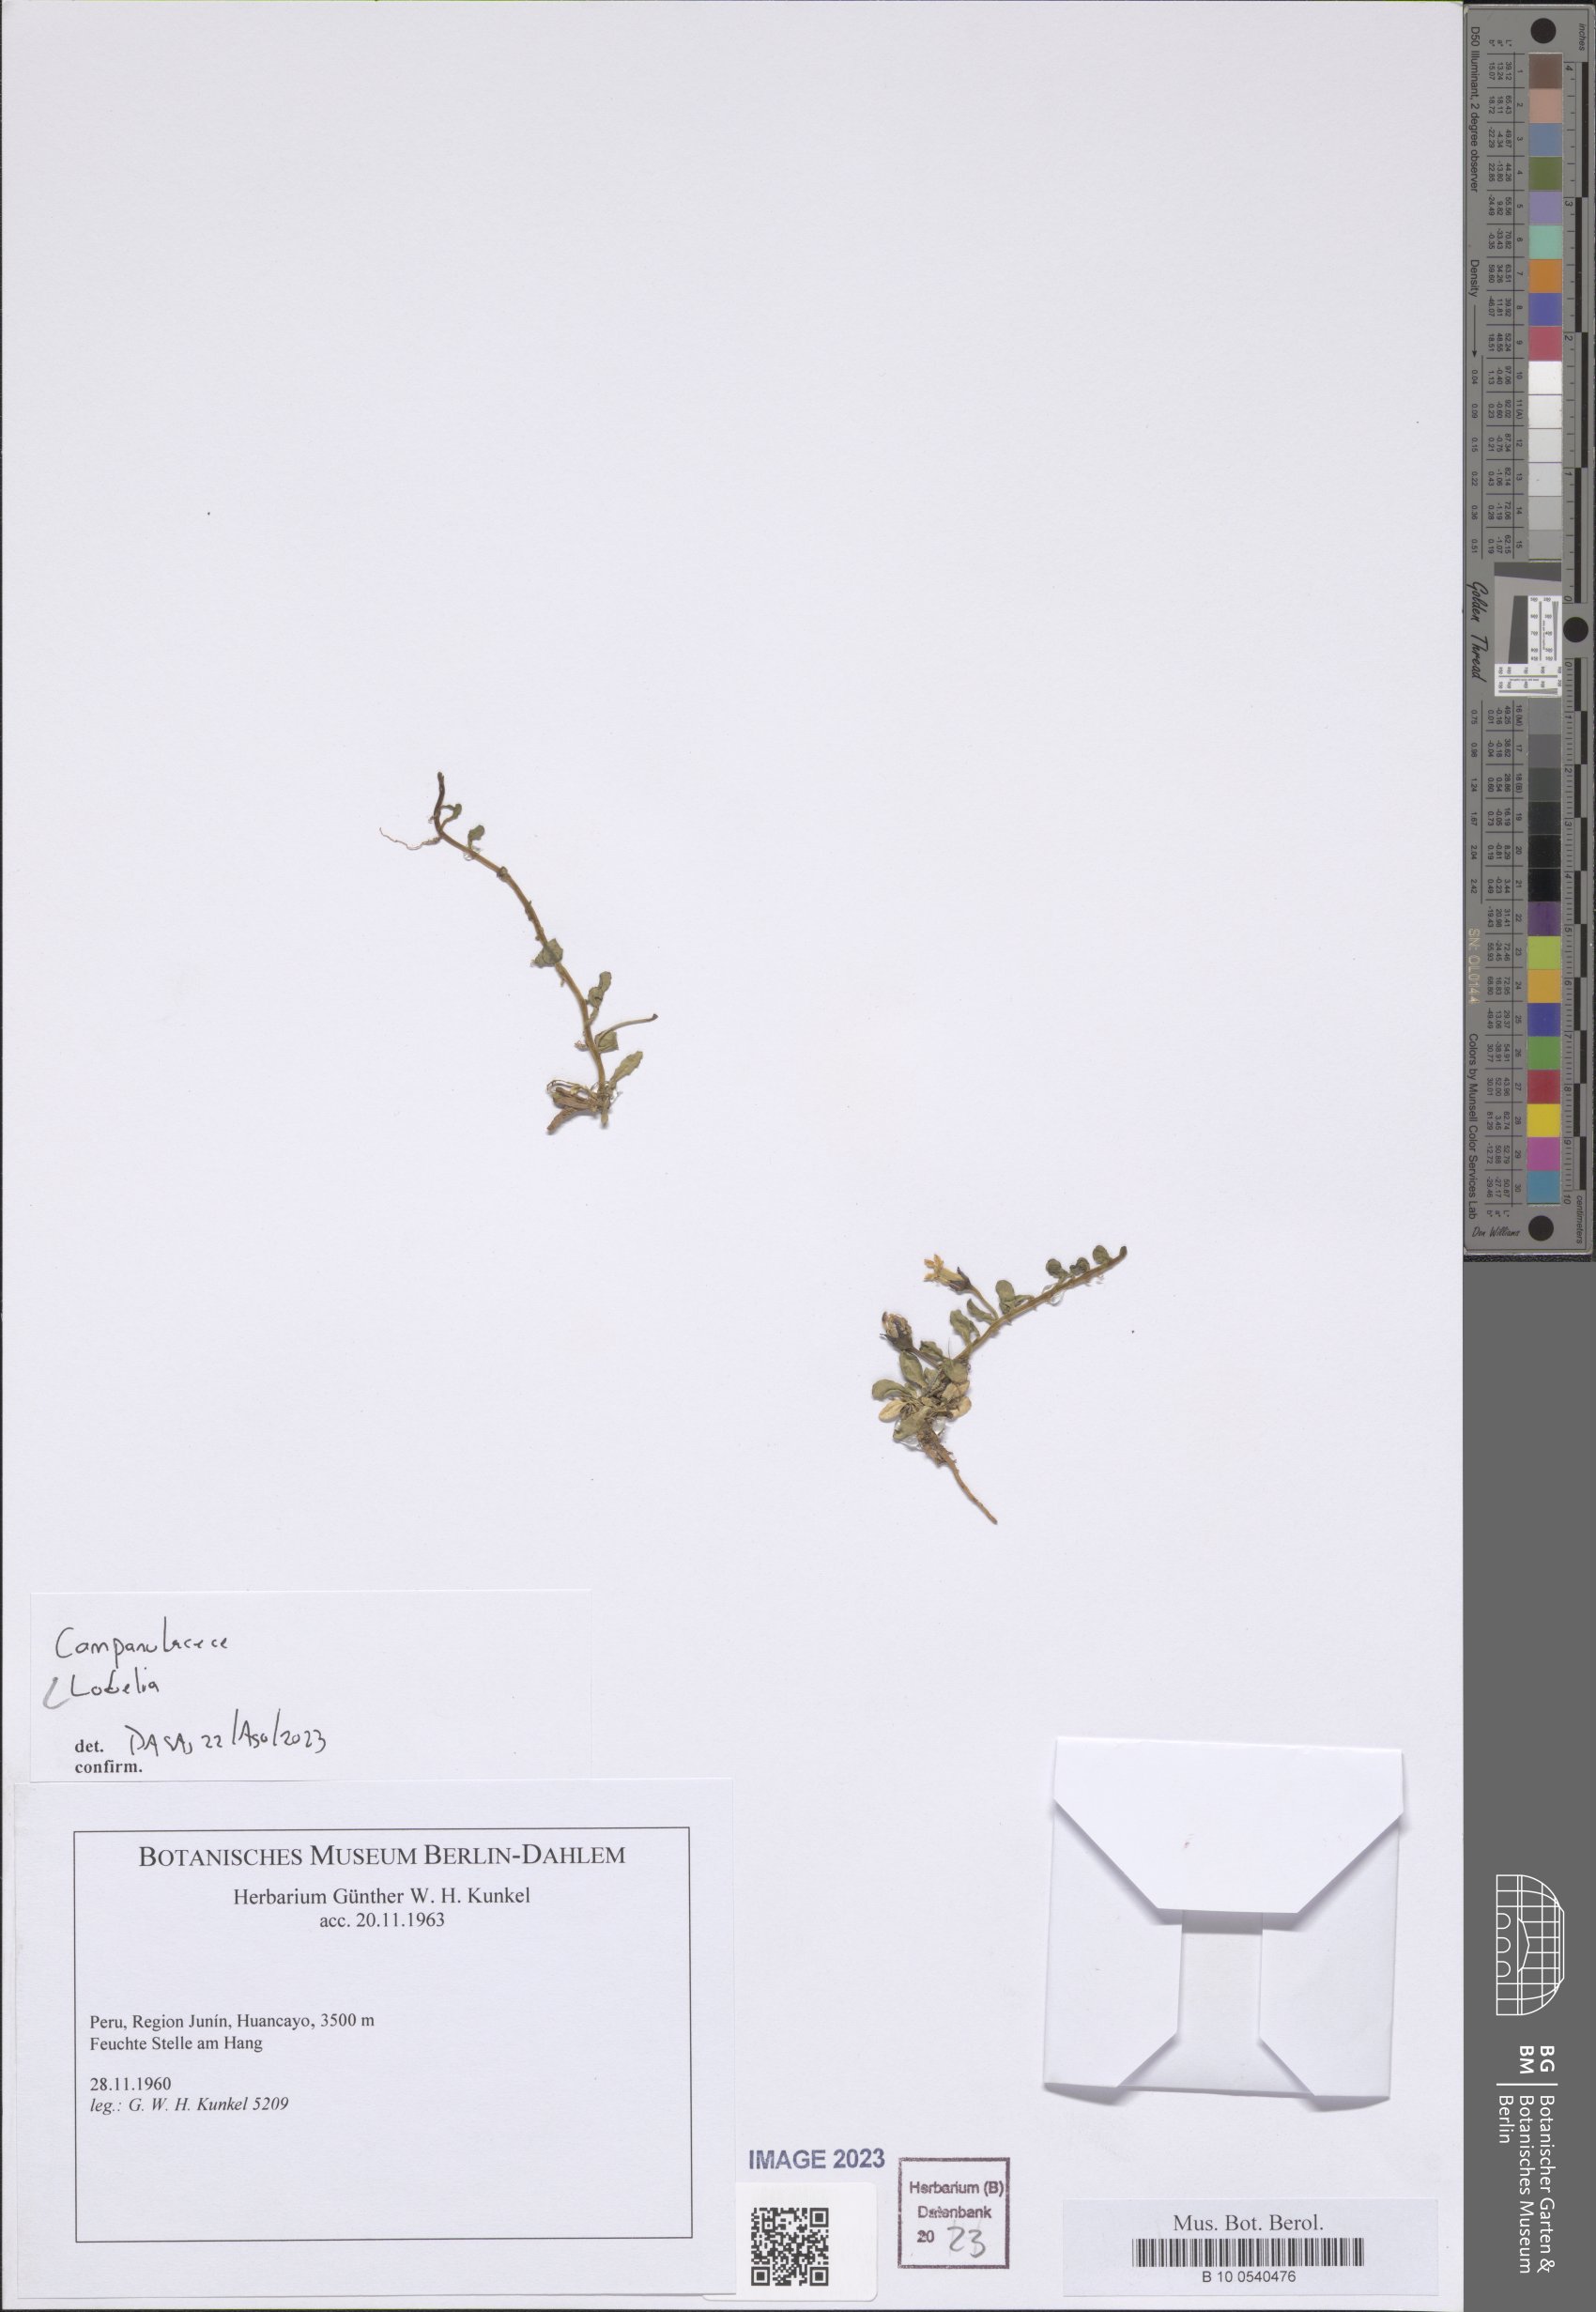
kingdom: Plantae
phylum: Tracheophyta
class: Magnoliopsida
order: Asterales
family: Campanulaceae
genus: Lobelia
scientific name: Lobelia
